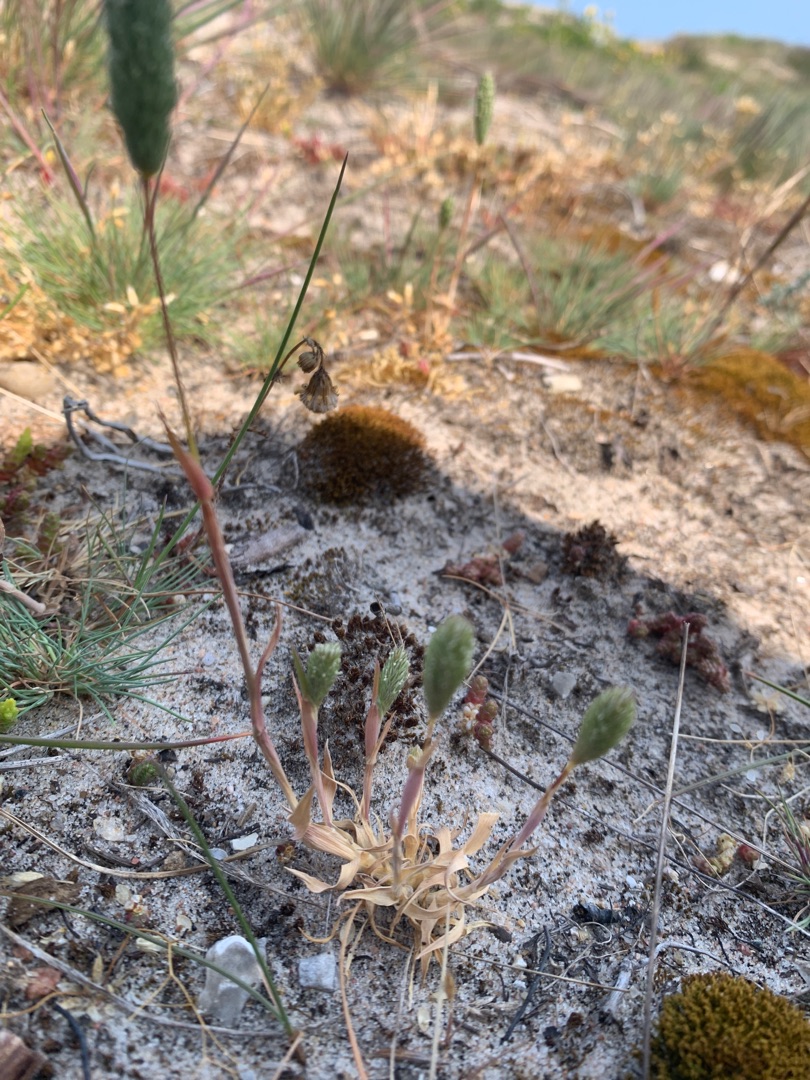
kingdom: Plantae
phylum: Tracheophyta
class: Liliopsida
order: Poales
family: Poaceae
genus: Phleum
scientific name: Phleum arenarium
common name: Sand-rottehale
